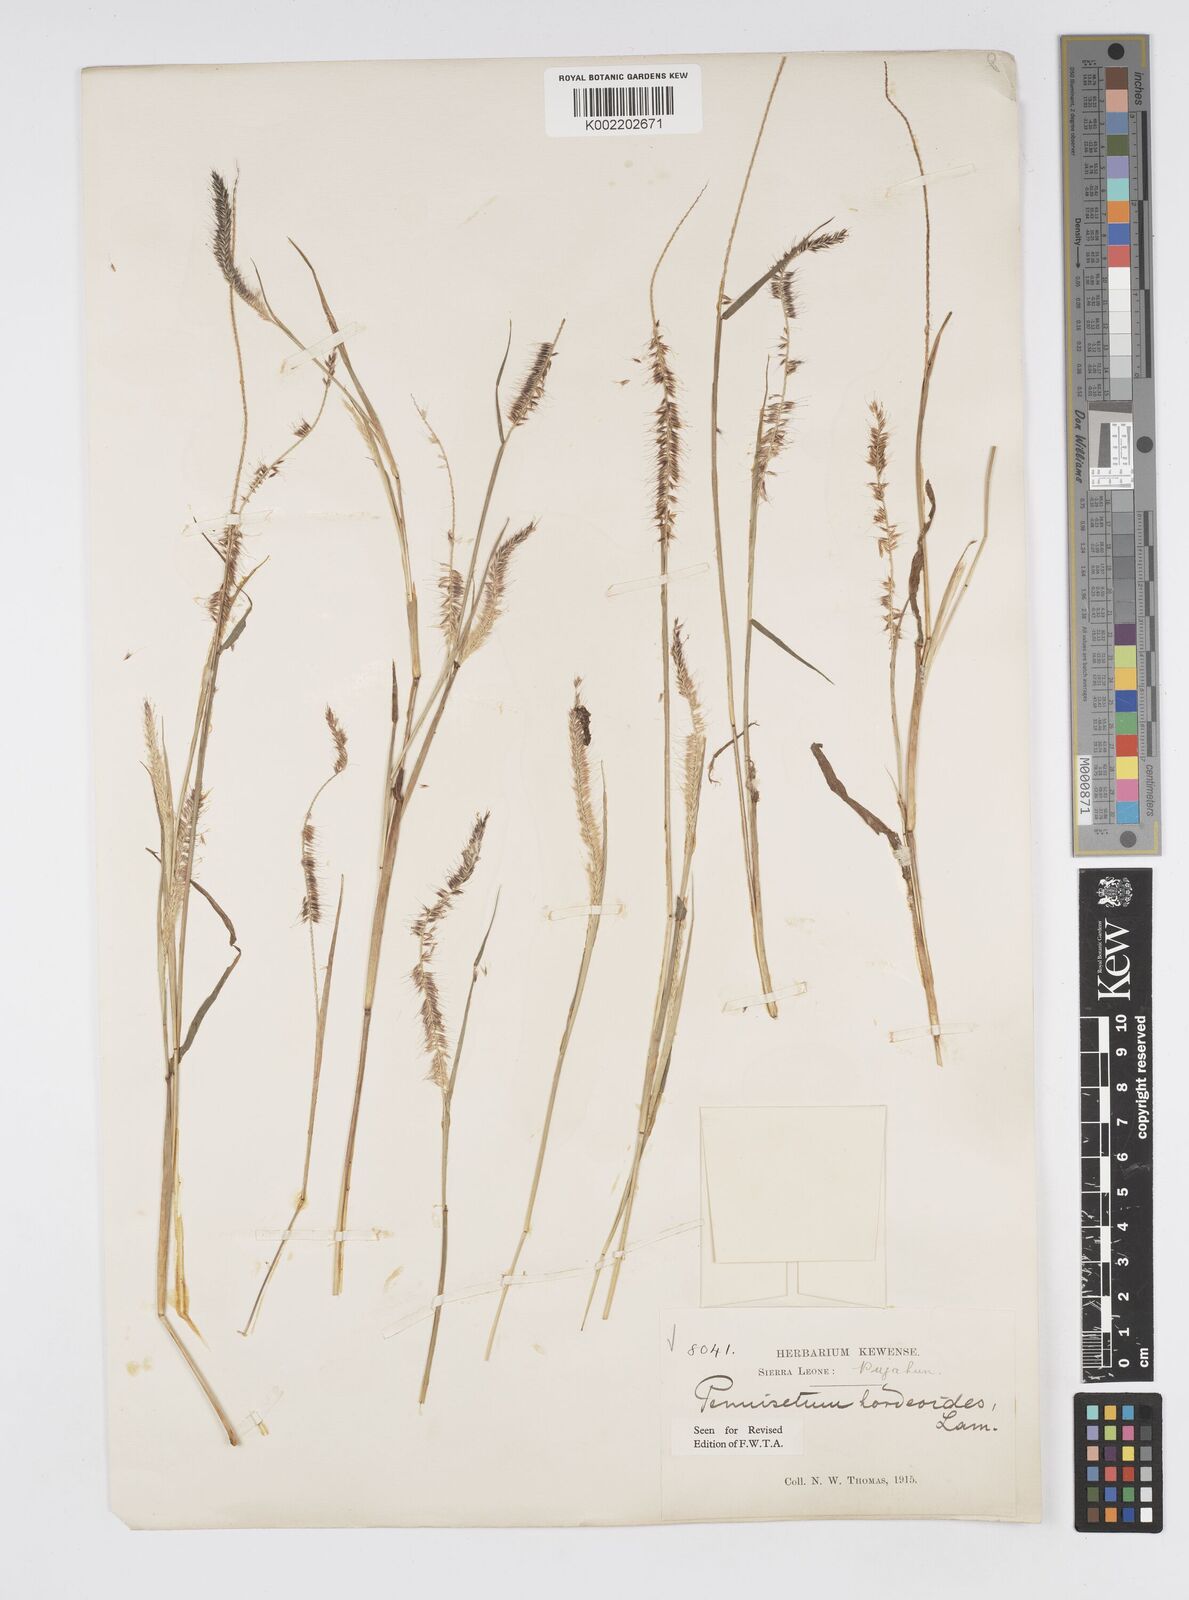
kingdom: Plantae
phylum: Tracheophyta
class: Liliopsida
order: Poales
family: Poaceae
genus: Cenchrus
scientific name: Cenchrus hordeoides
